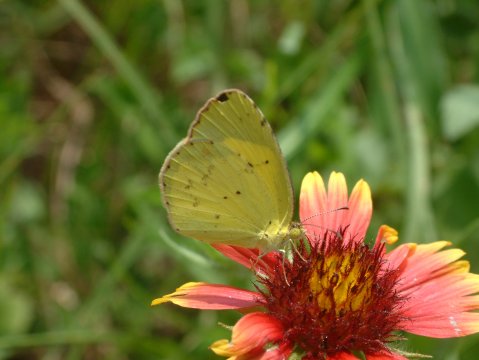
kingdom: Animalia
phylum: Arthropoda
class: Insecta
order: Lepidoptera
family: Pieridae
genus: Pyrisitia
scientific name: Pyrisitia lisa
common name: Little Yellow
